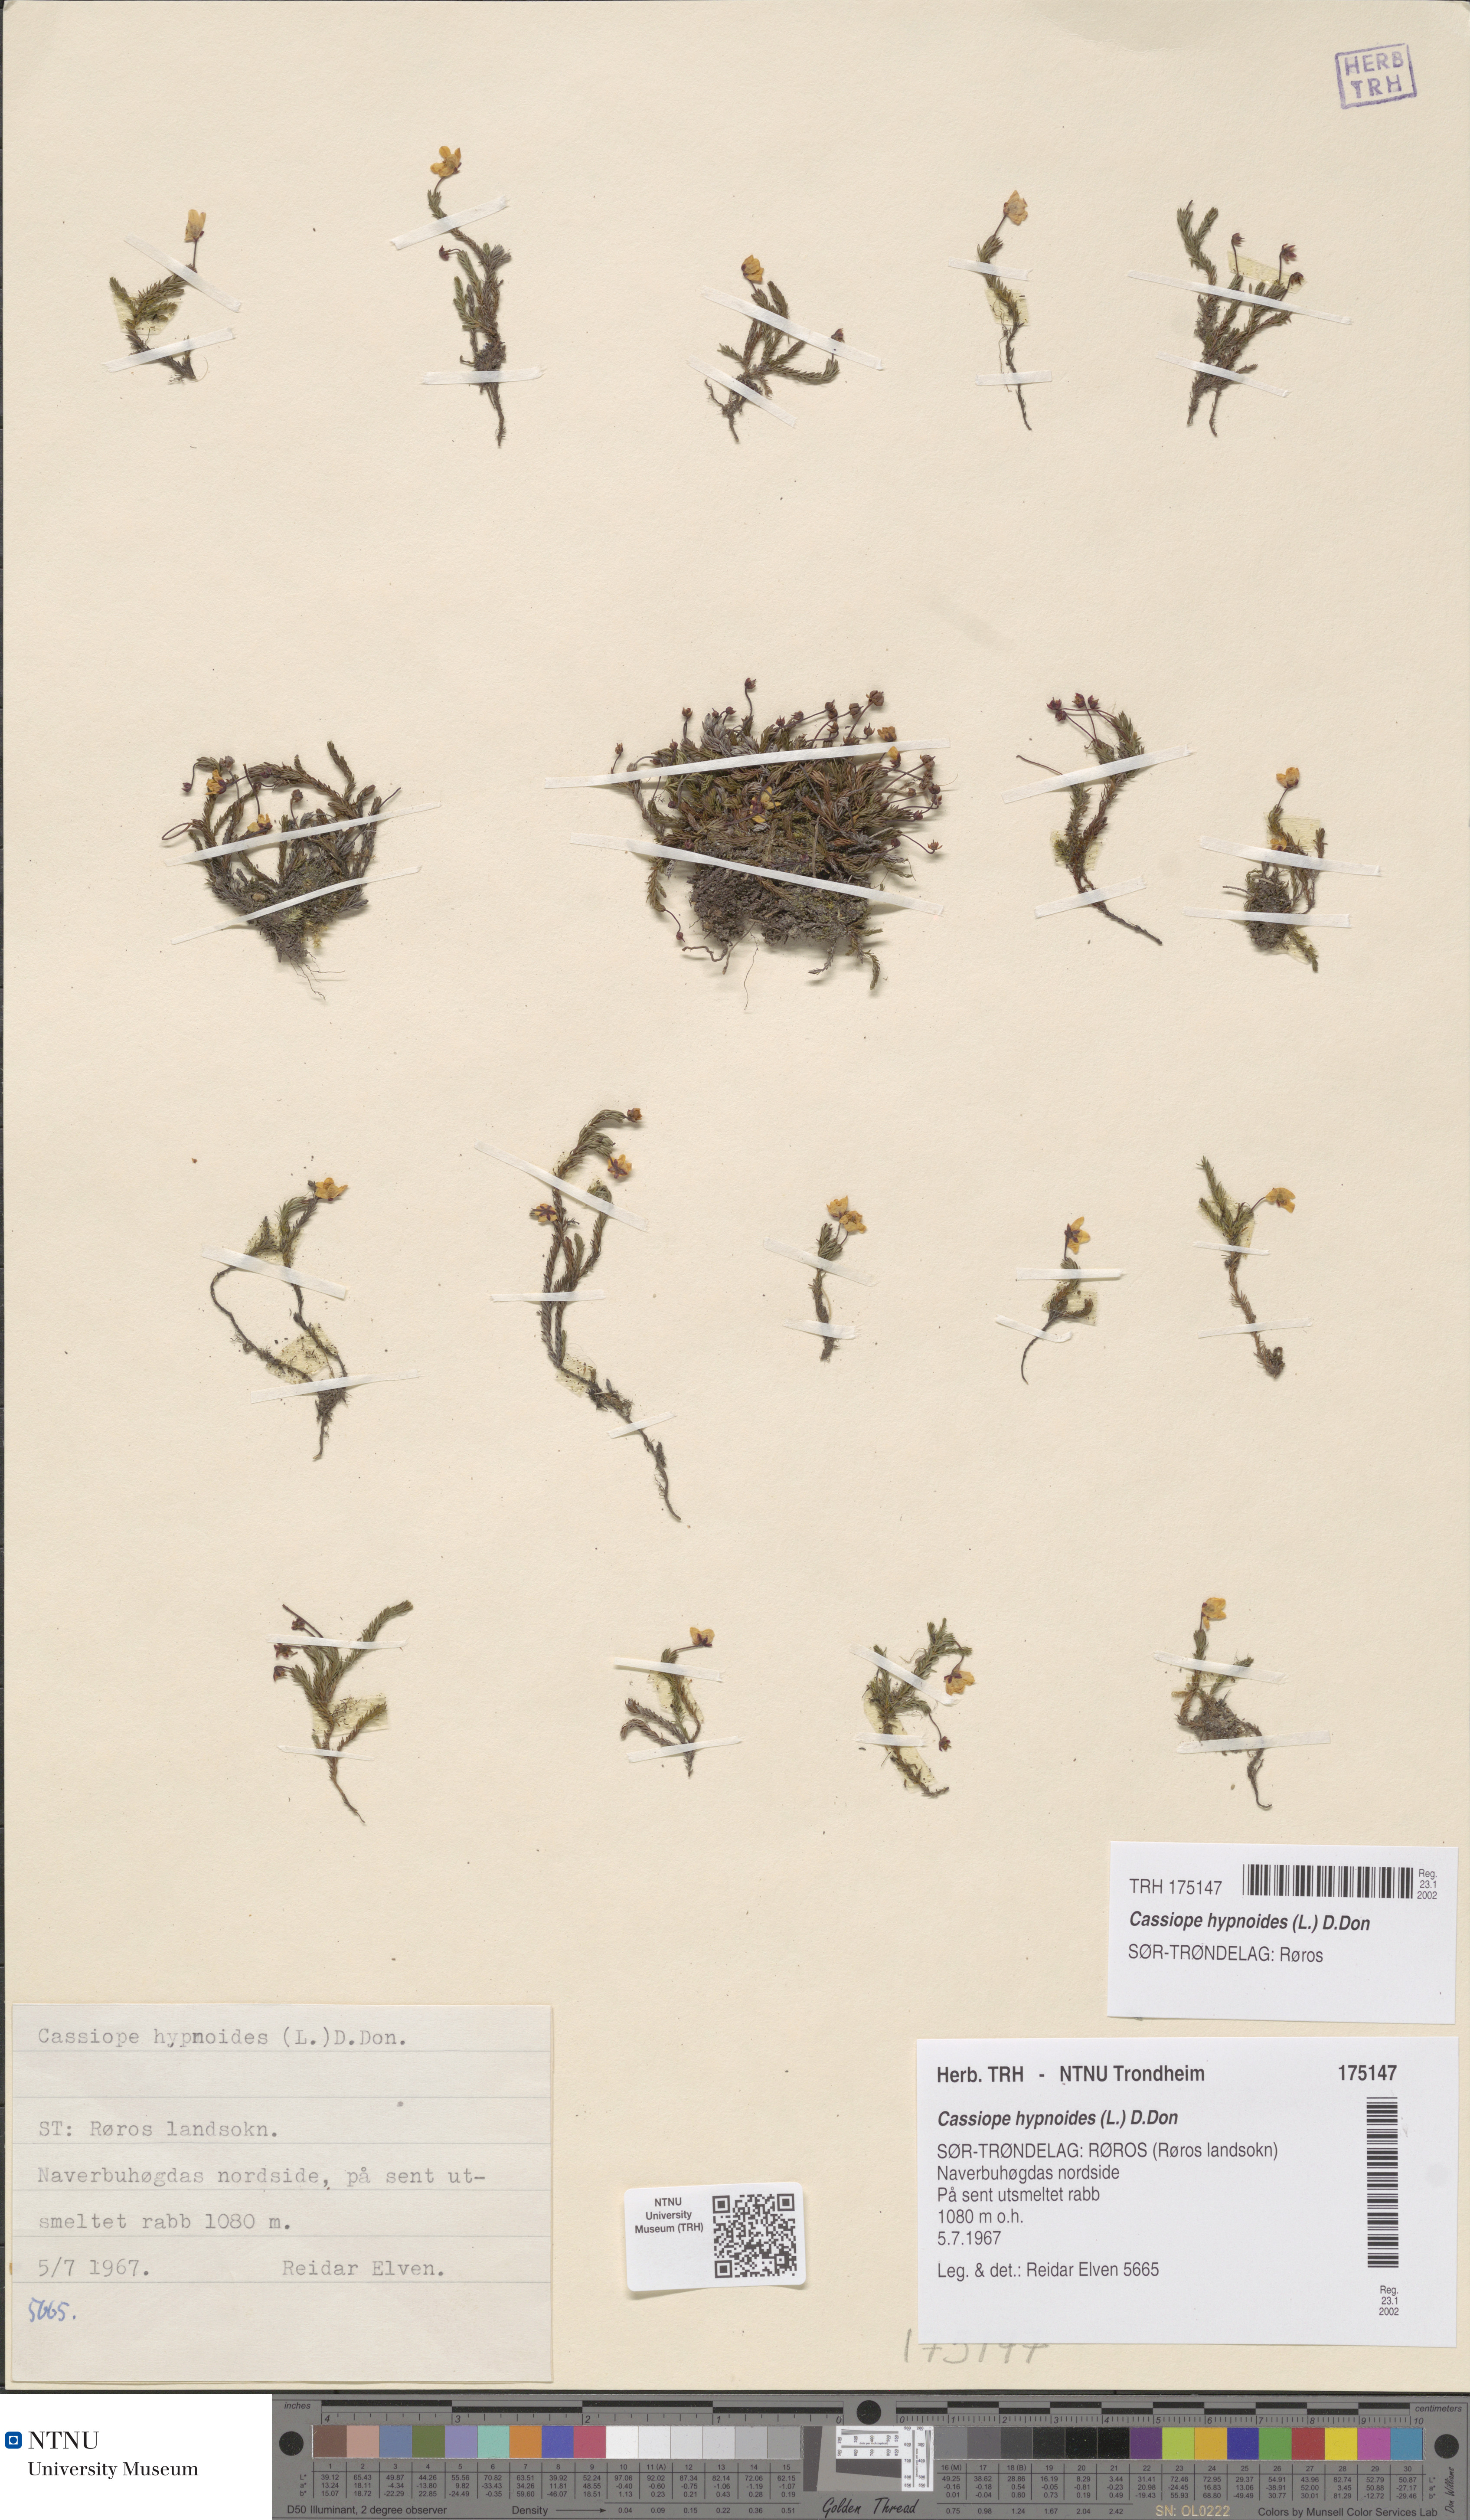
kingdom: Plantae
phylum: Tracheophyta
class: Magnoliopsida
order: Ericales
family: Ericaceae
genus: Harrimanella
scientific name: Harrimanella hypnoides
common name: Moss bell heather
